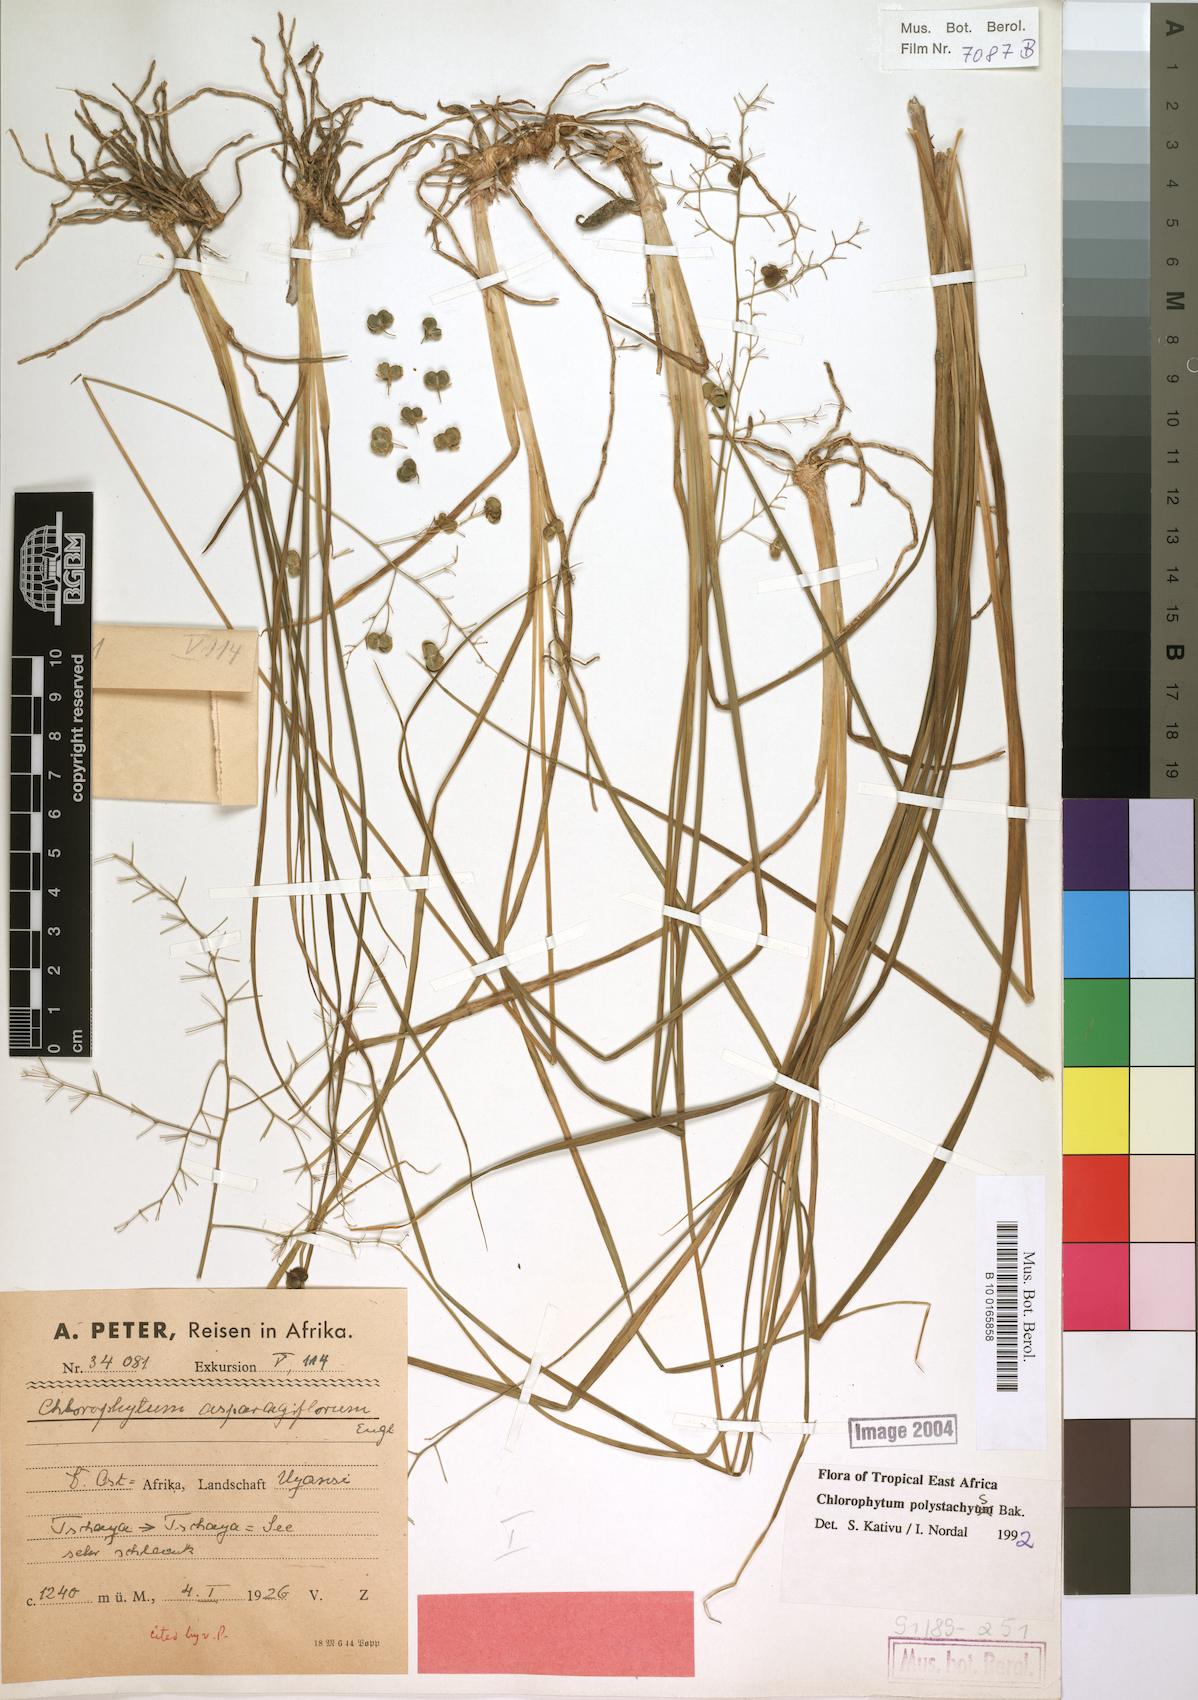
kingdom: Plantae
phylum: Tracheophyta
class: Liliopsida
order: Asparagales
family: Asparagaceae
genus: Chlorophytum
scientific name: Chlorophytum polystachys
